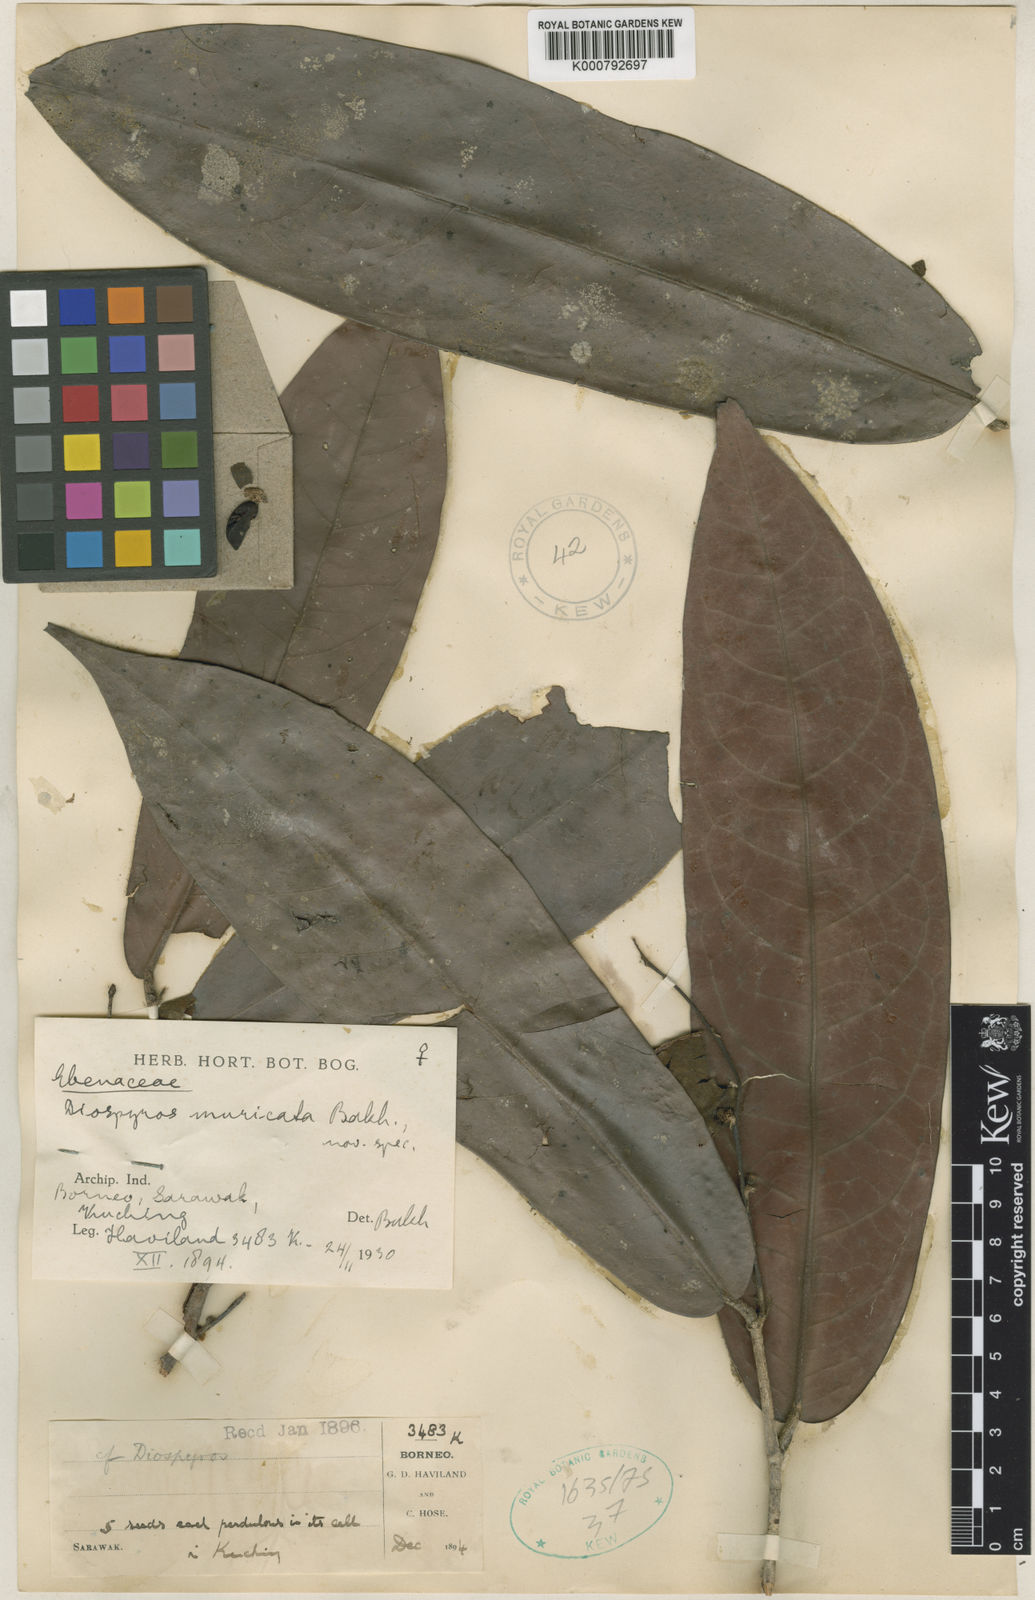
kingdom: Plantae
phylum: Tracheophyta
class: Magnoliopsida
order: Ericales
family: Ebenaceae
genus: Diospyros
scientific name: Diospyros muricata
